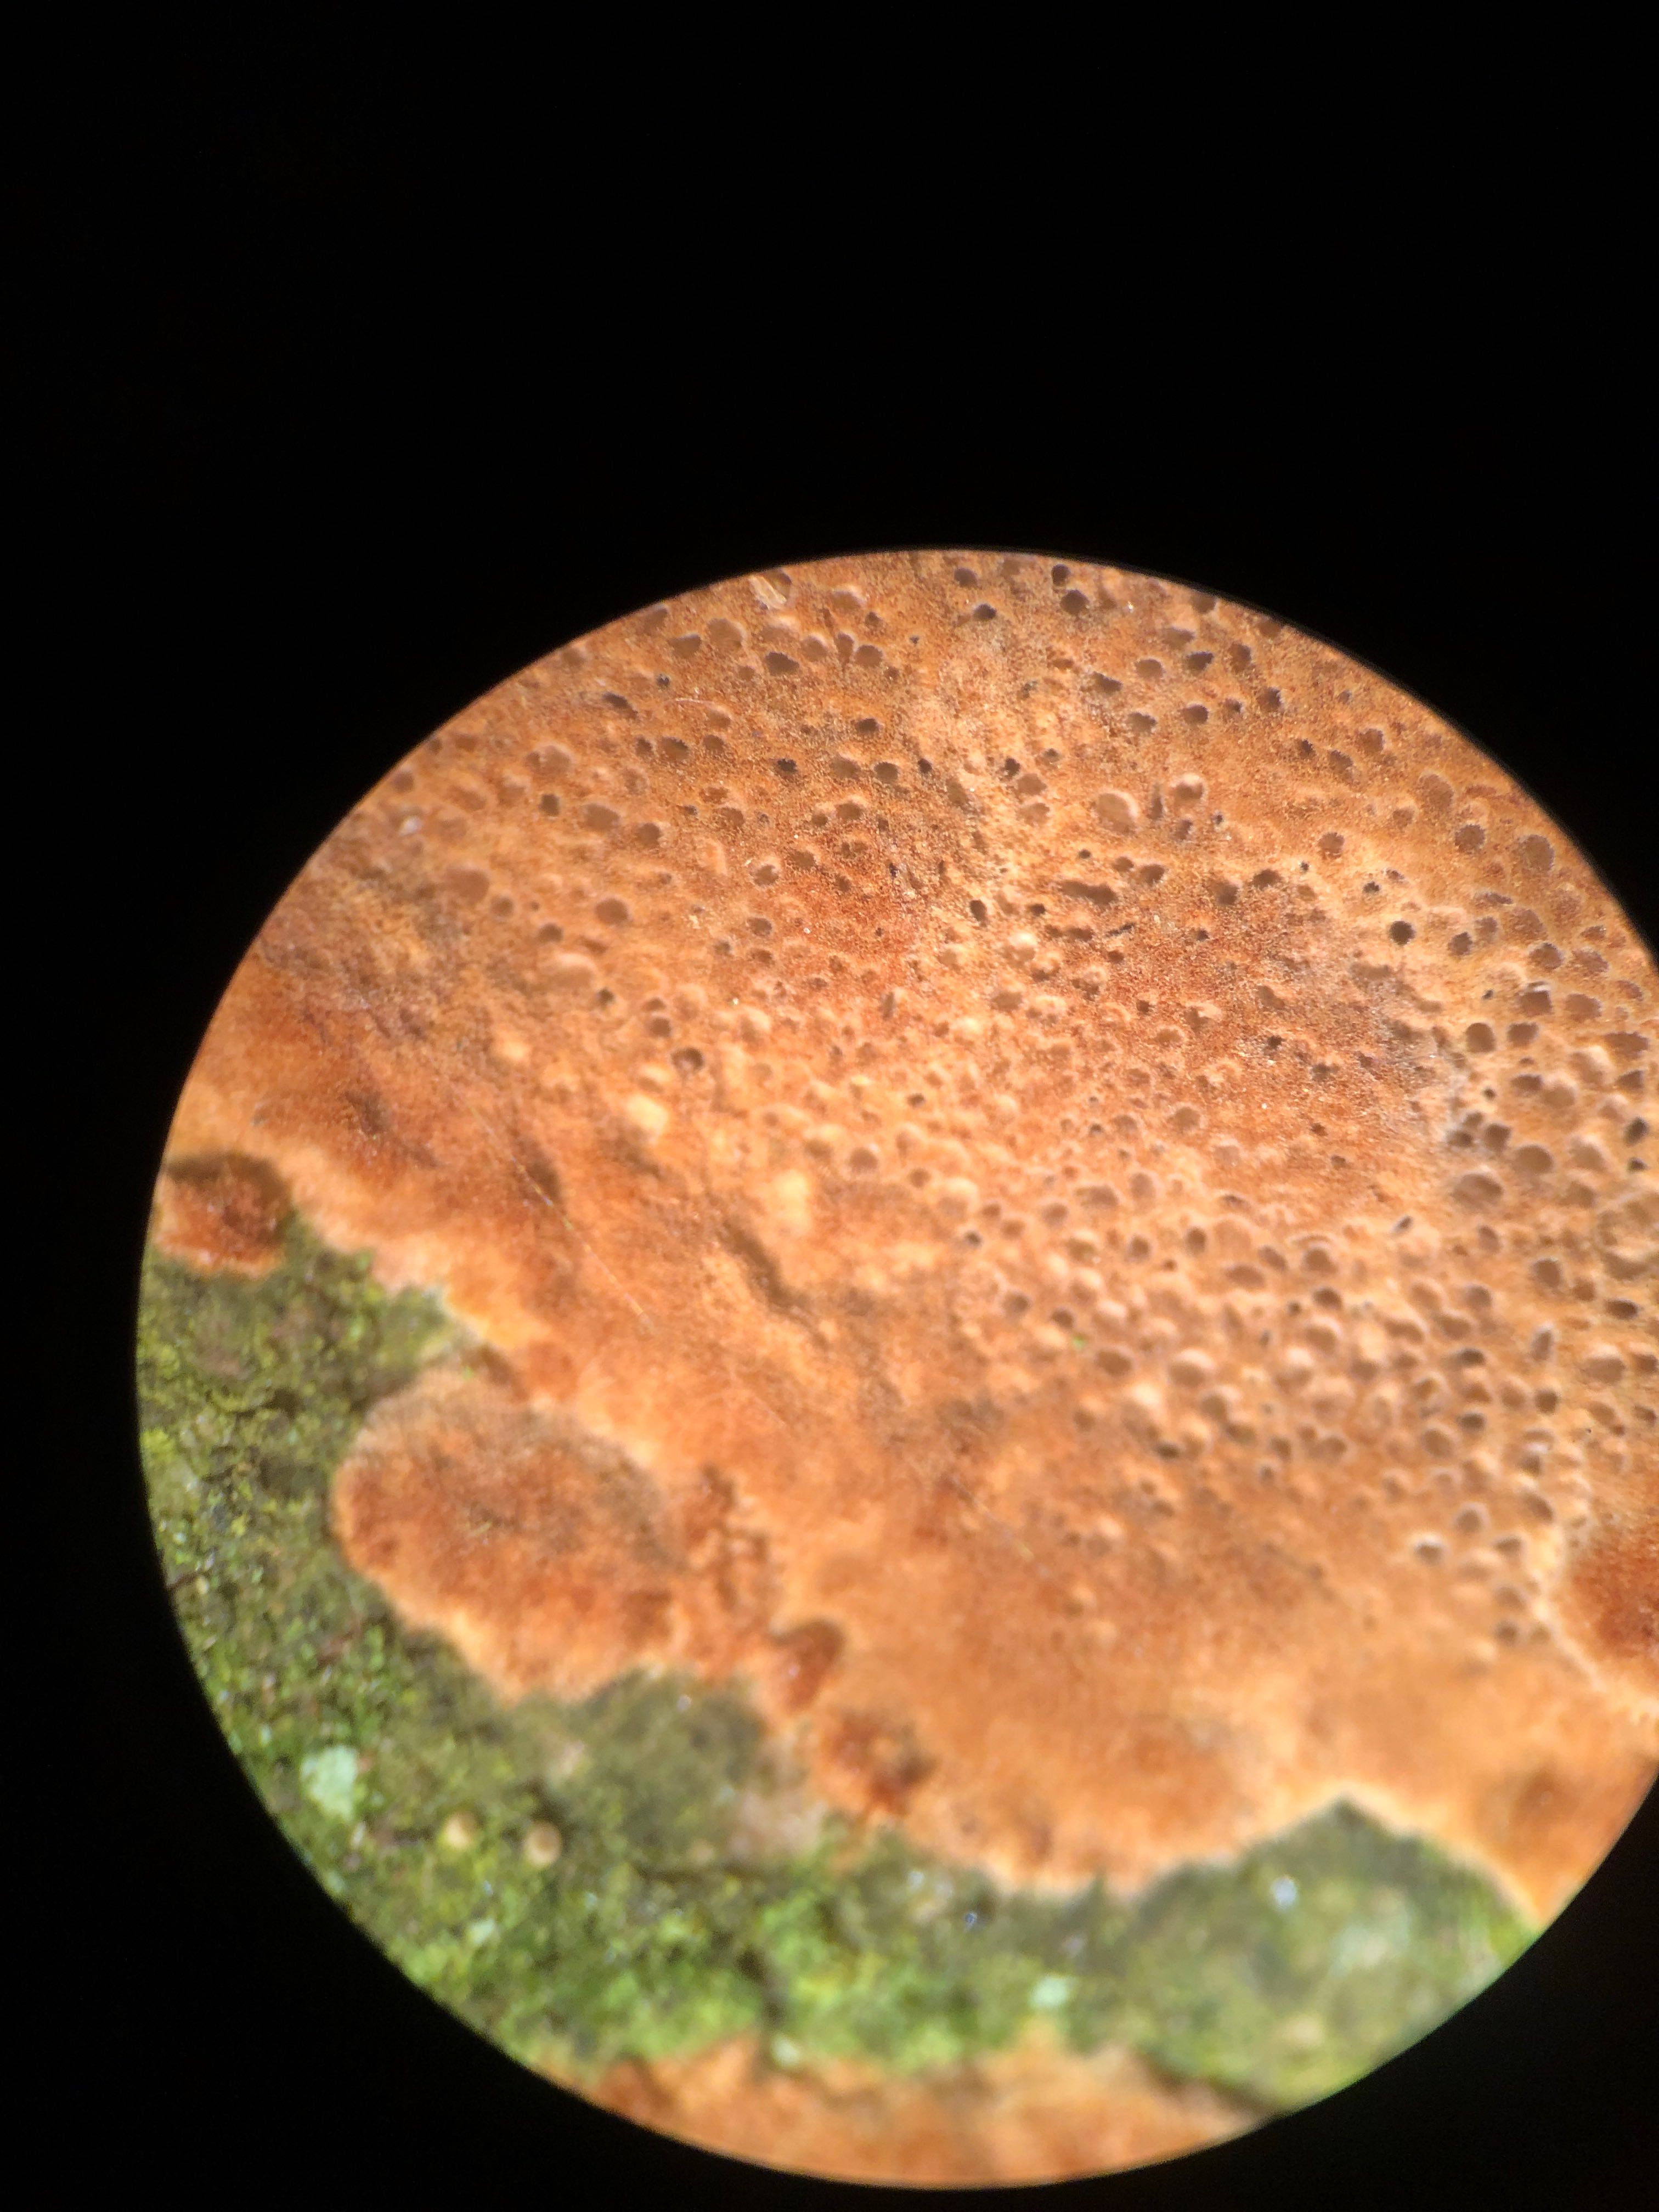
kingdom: Fungi
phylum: Basidiomycota
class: Agaricomycetes
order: Hymenochaetales
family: Hymenochaetaceae
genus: Fuscoporia
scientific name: Fuscoporia ferrea
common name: skorpe-ildporesvamp
